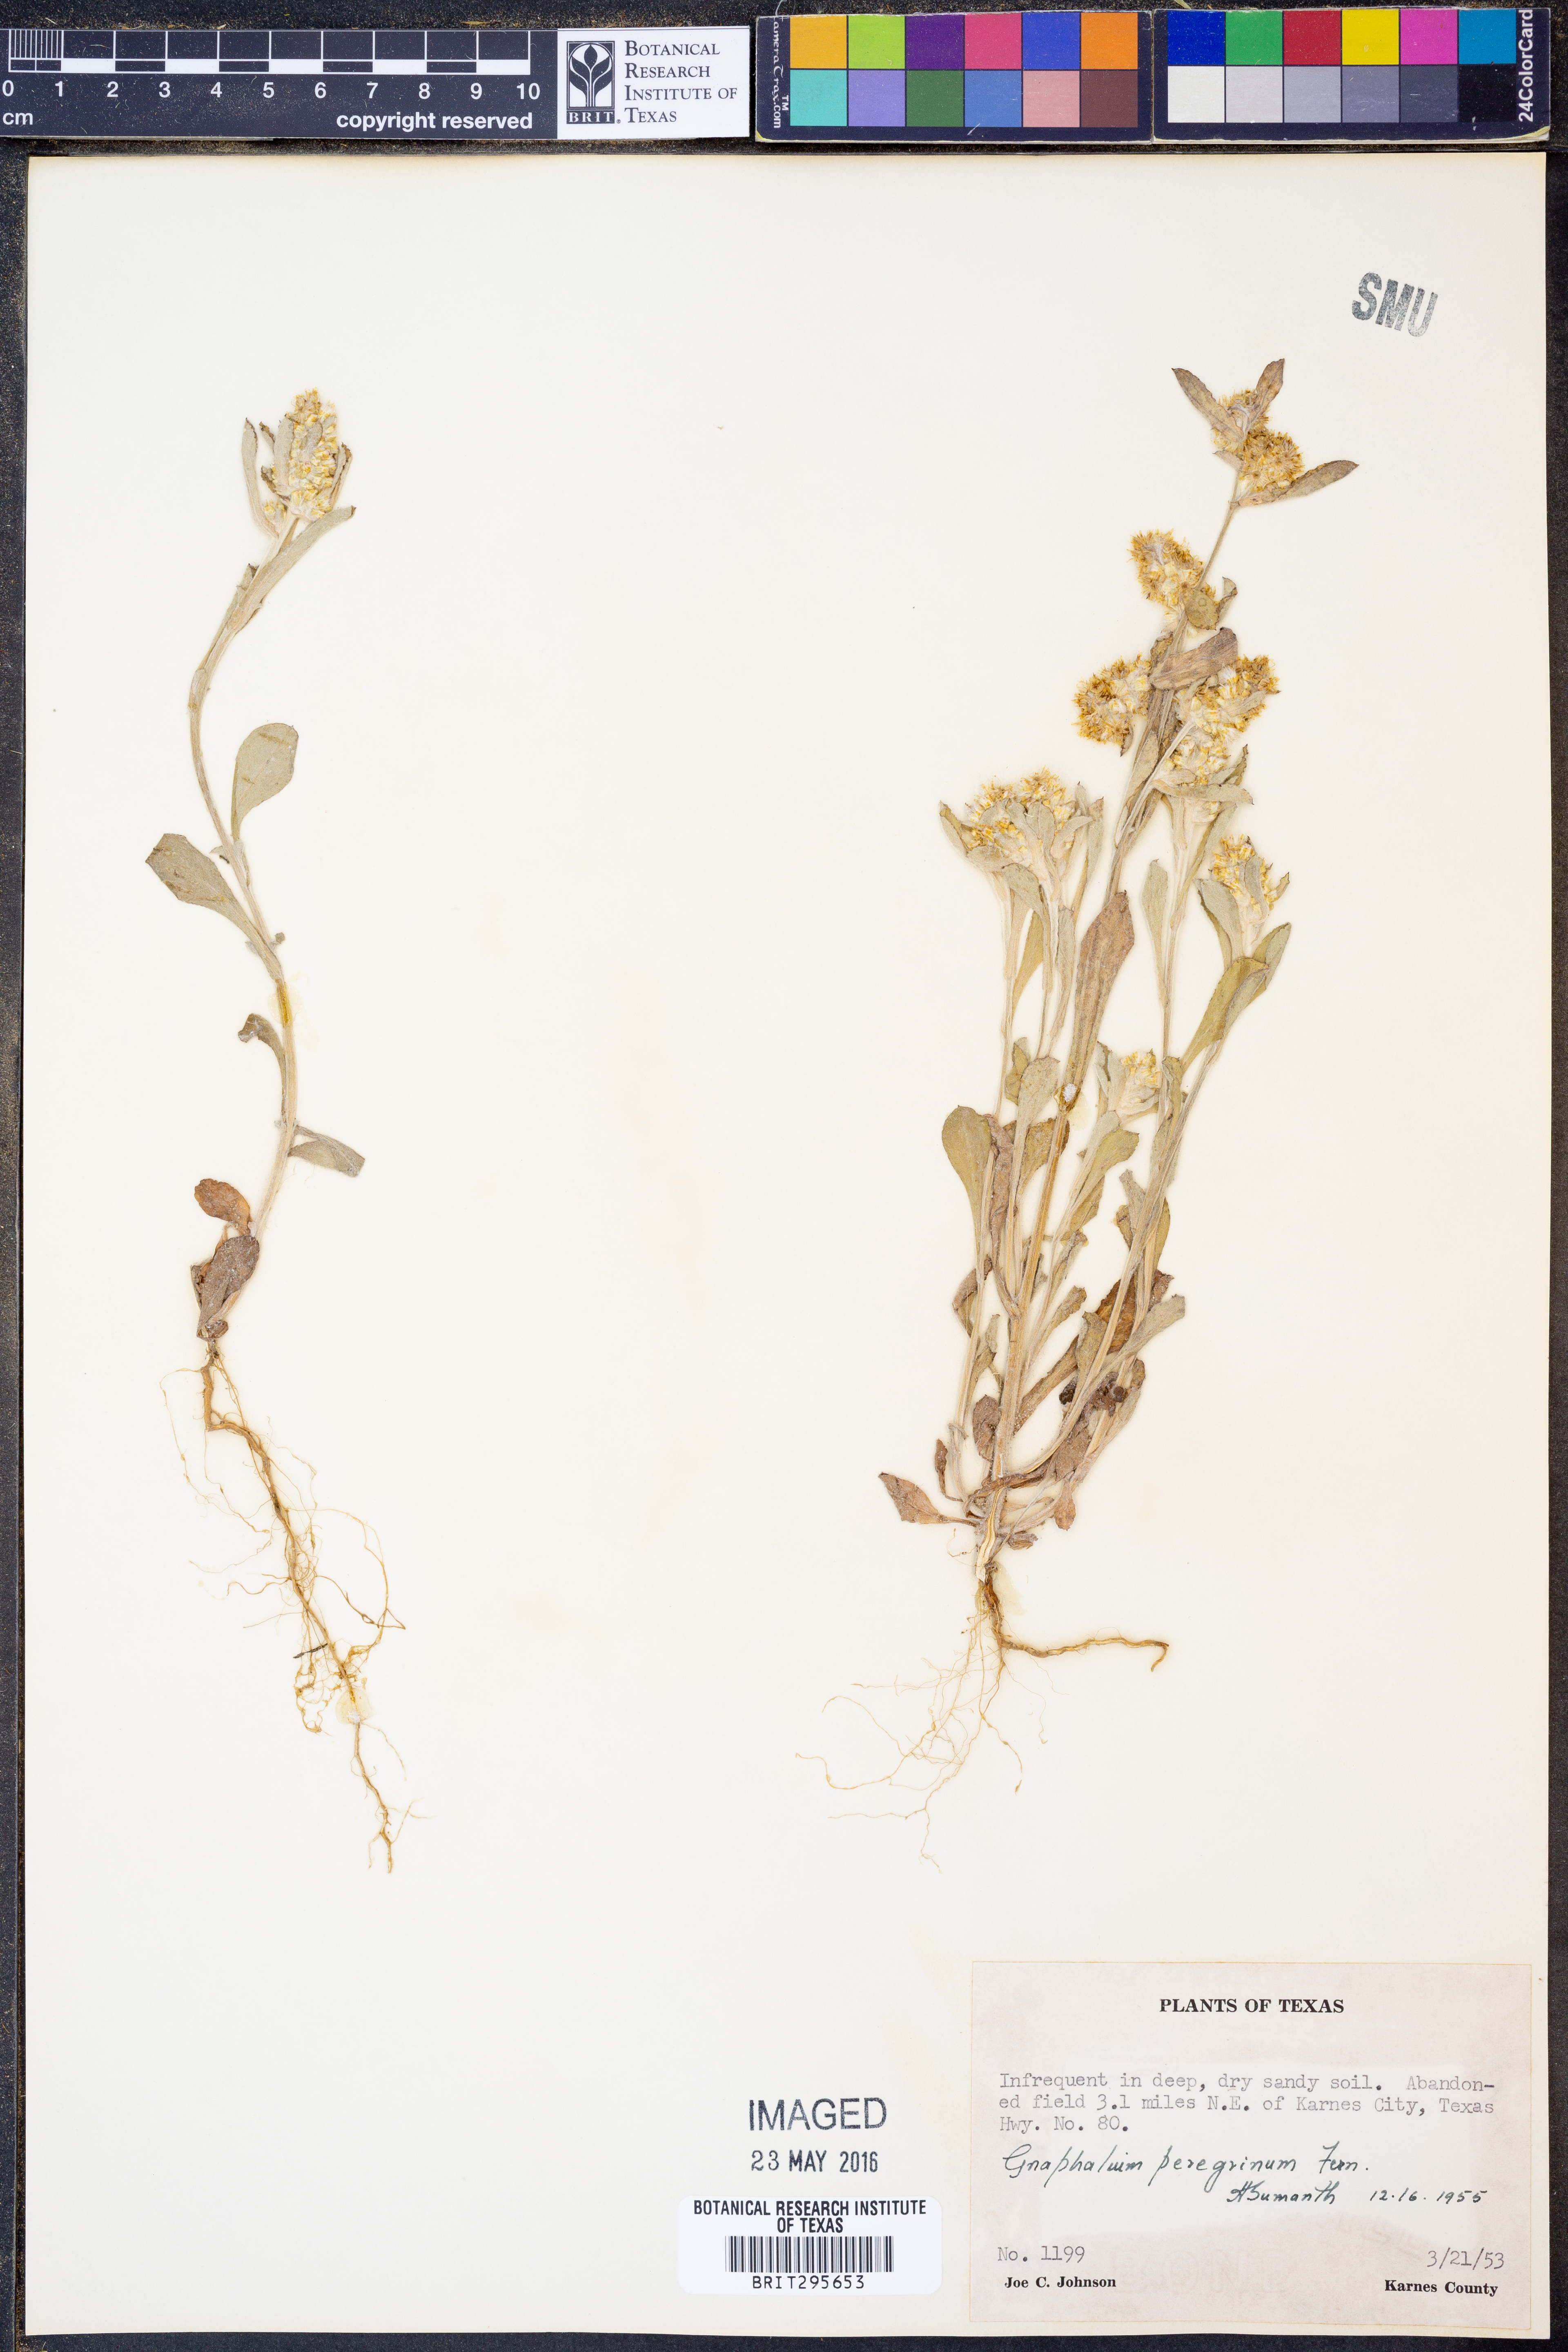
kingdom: Plantae
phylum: Tracheophyta
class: Magnoliopsida
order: Asterales
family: Asteraceae
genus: Gamochaeta
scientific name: Gamochaeta pensylvanica
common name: Pennsylvania everlasting
